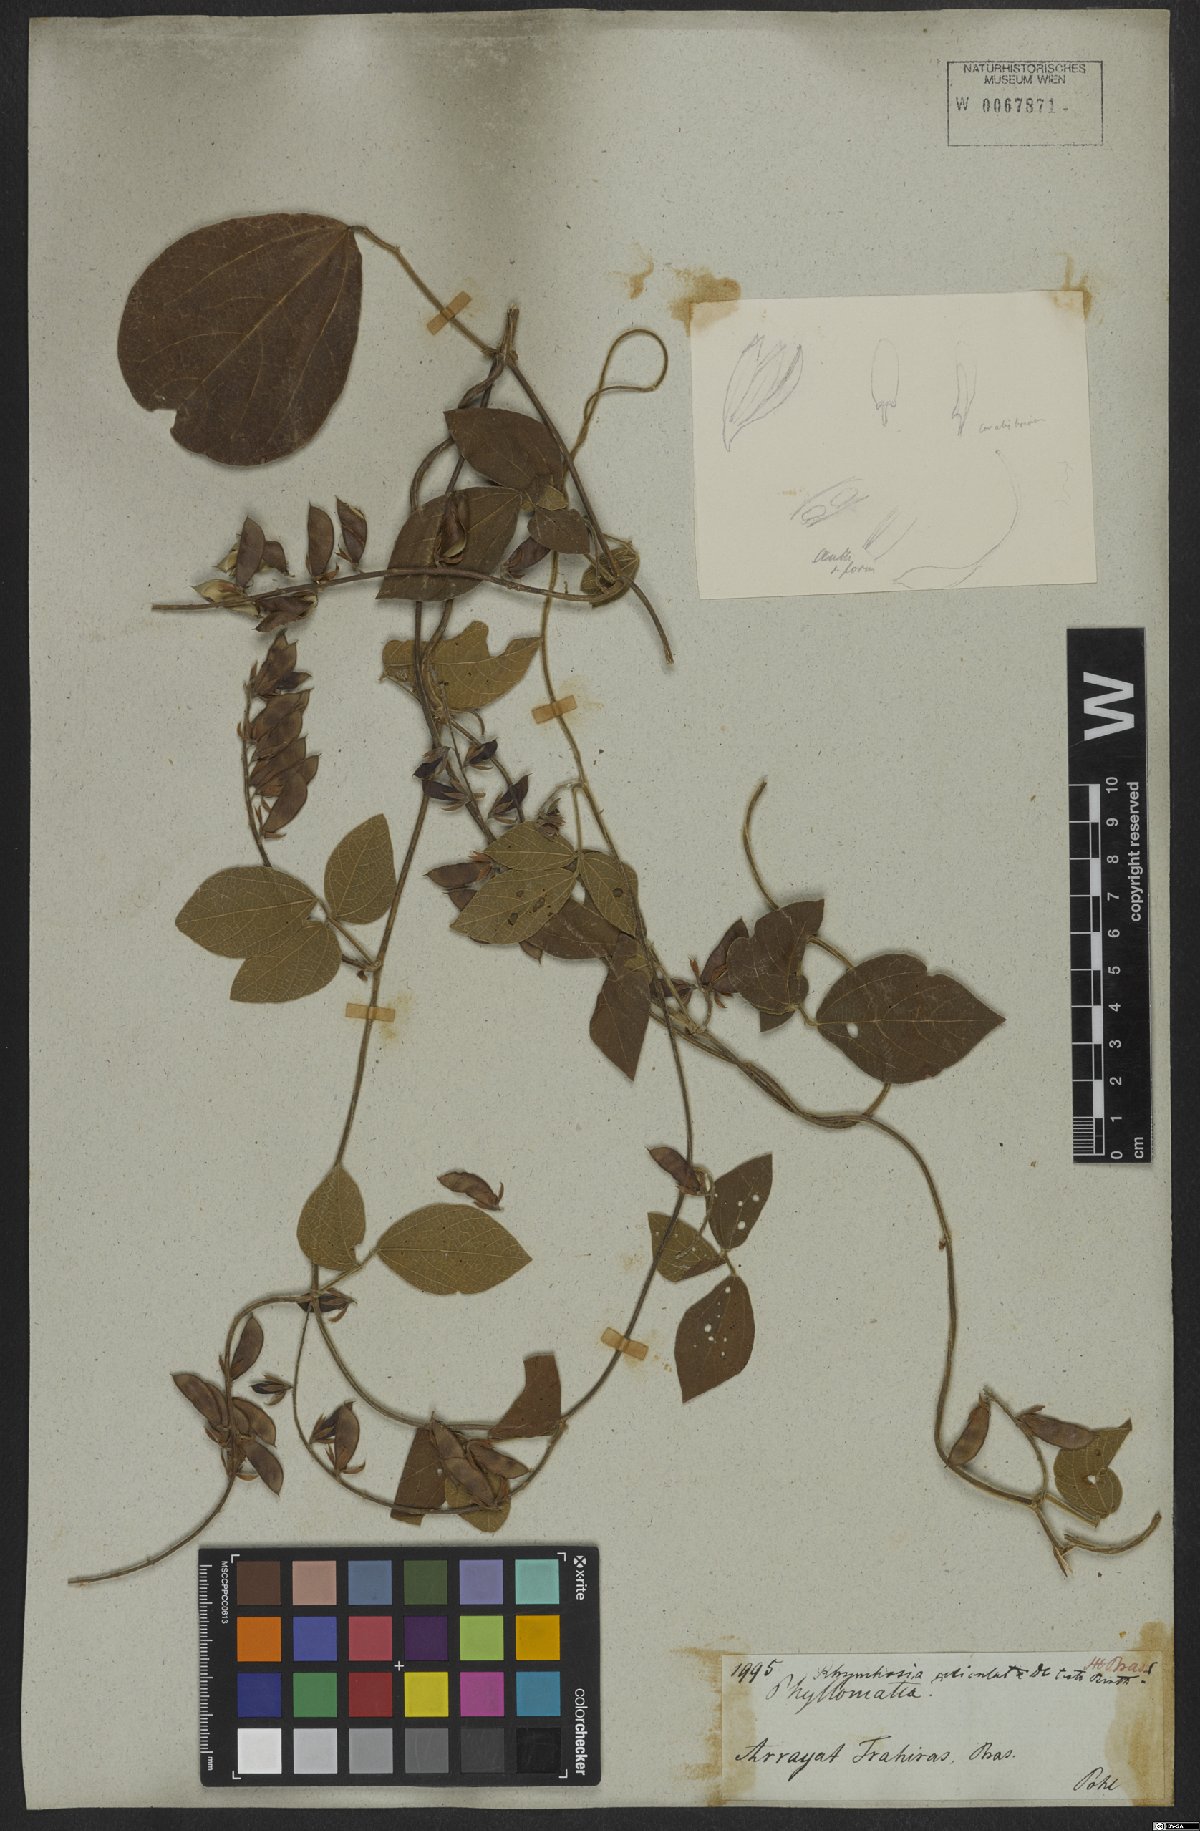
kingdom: Plantae
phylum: Tracheophyta
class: Magnoliopsida
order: Fabales
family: Fabaceae
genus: Rhynchosia
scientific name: Rhynchosia reticulata
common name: Pea withe
